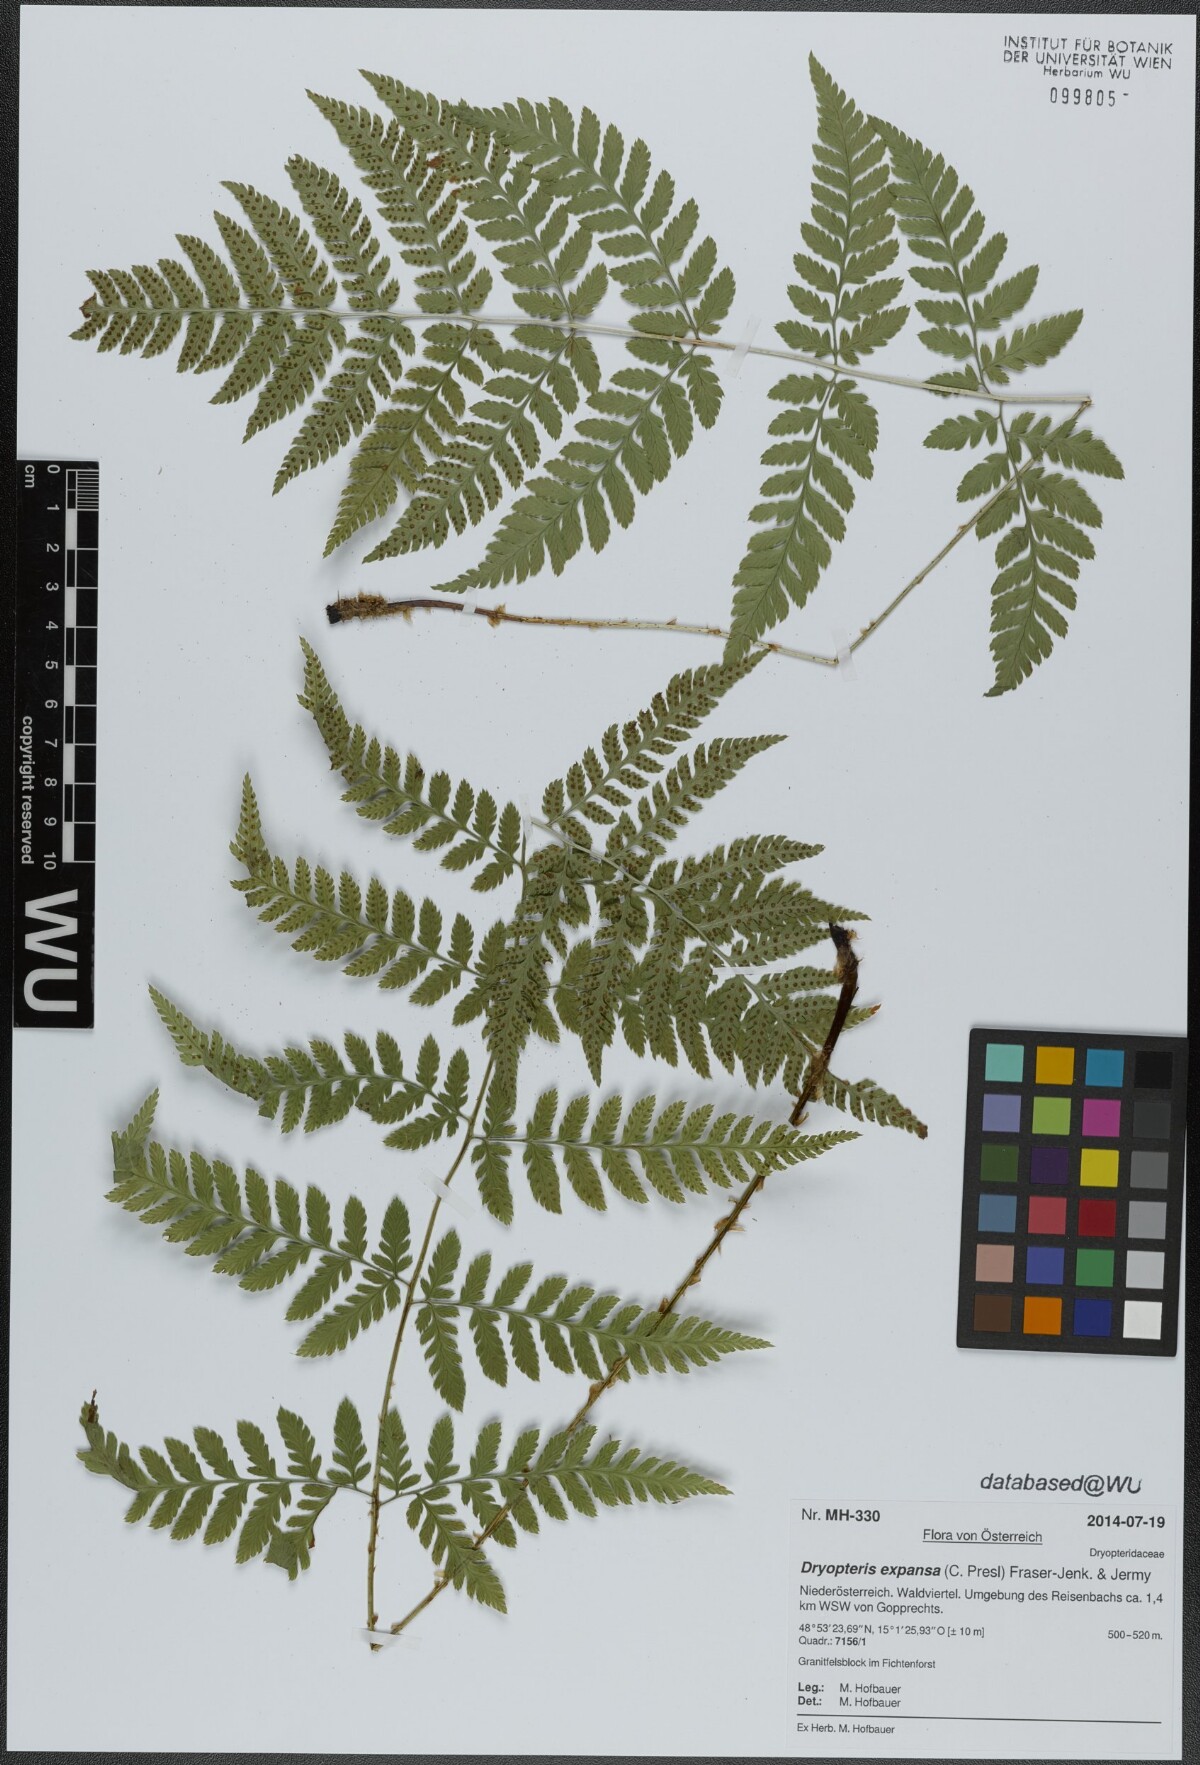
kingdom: Plantae
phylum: Tracheophyta
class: Polypodiopsida
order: Polypodiales
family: Dryopteridaceae
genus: Dryopteris
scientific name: Dryopteris expansa
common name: Northern buckler fern
